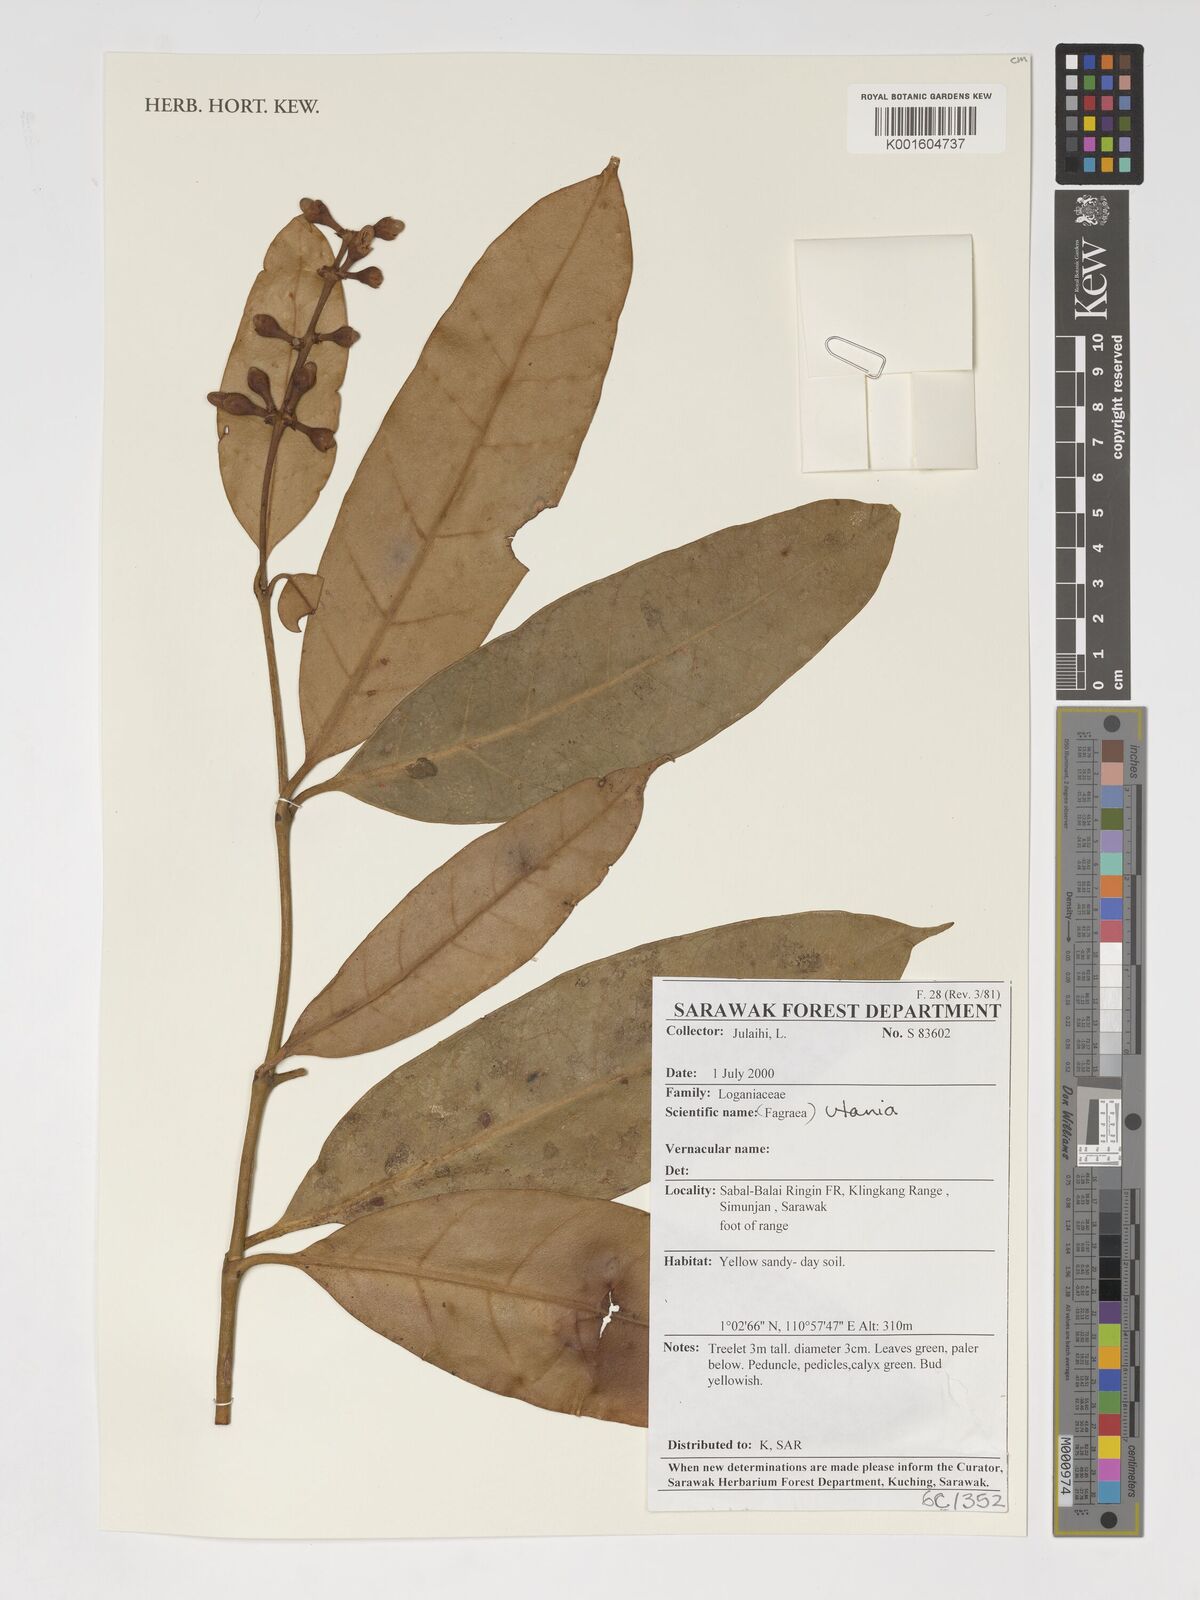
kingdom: Plantae
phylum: Tracheophyta
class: Magnoliopsida
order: Gentianales
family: Gentianaceae
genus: Utania
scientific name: Utania
